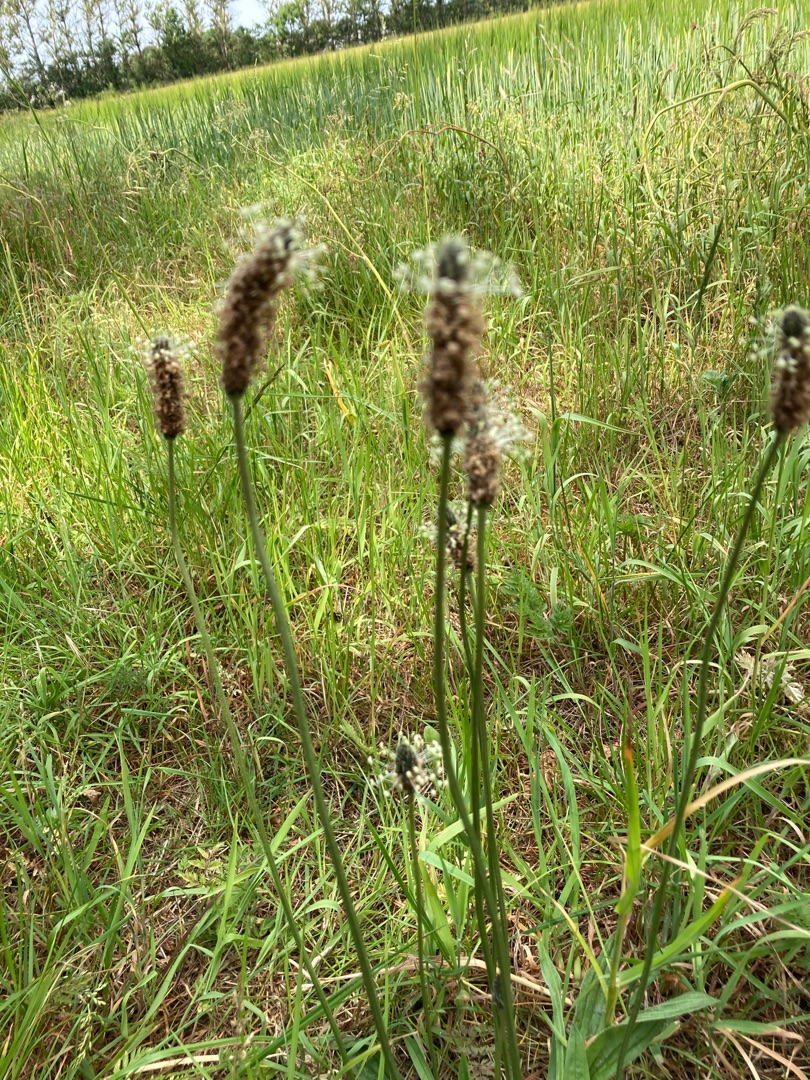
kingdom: Plantae
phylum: Tracheophyta
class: Magnoliopsida
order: Lamiales
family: Plantaginaceae
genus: Plantago
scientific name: Plantago lanceolata
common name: Lancet-vejbred
